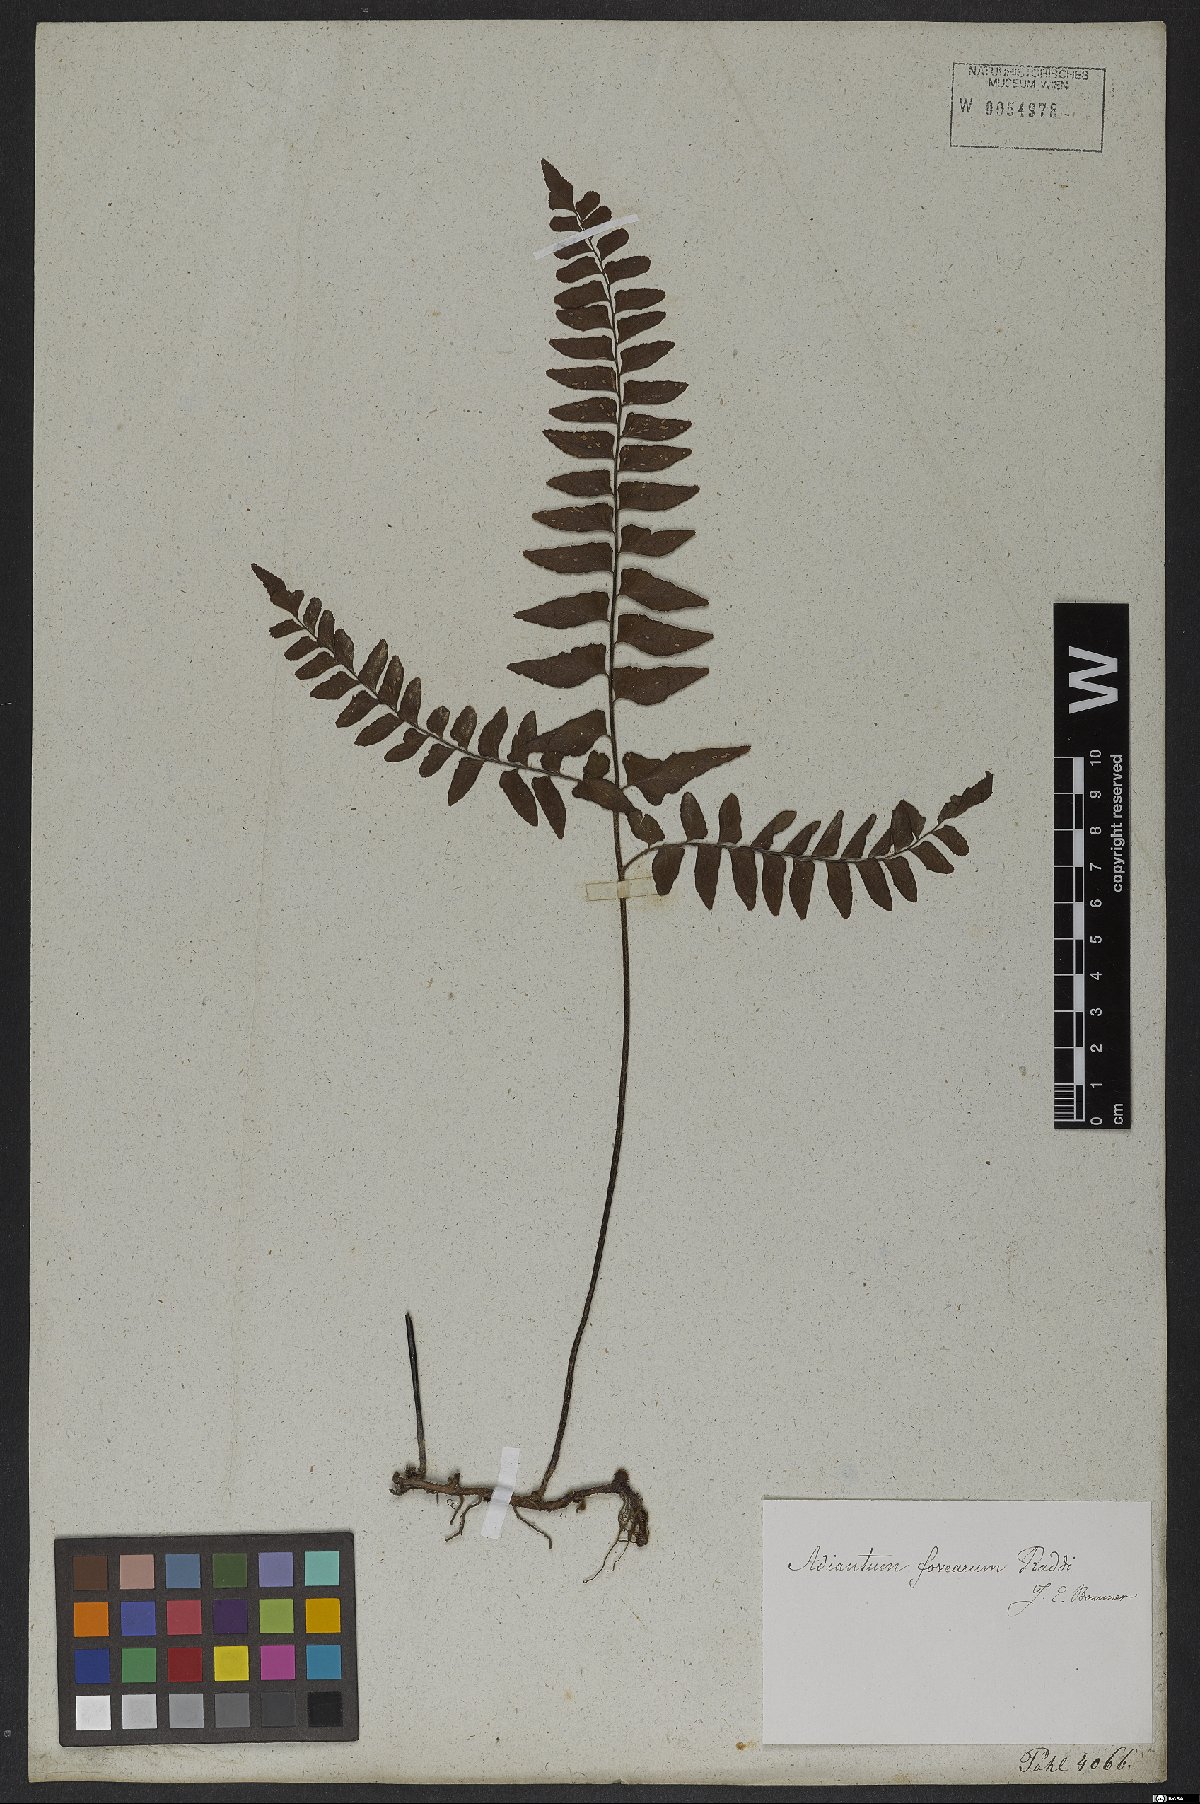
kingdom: Plantae
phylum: Tracheophyta
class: Polypodiopsida
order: Polypodiales
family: Pteridaceae
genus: Adiantum
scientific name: Adiantum latifolium
